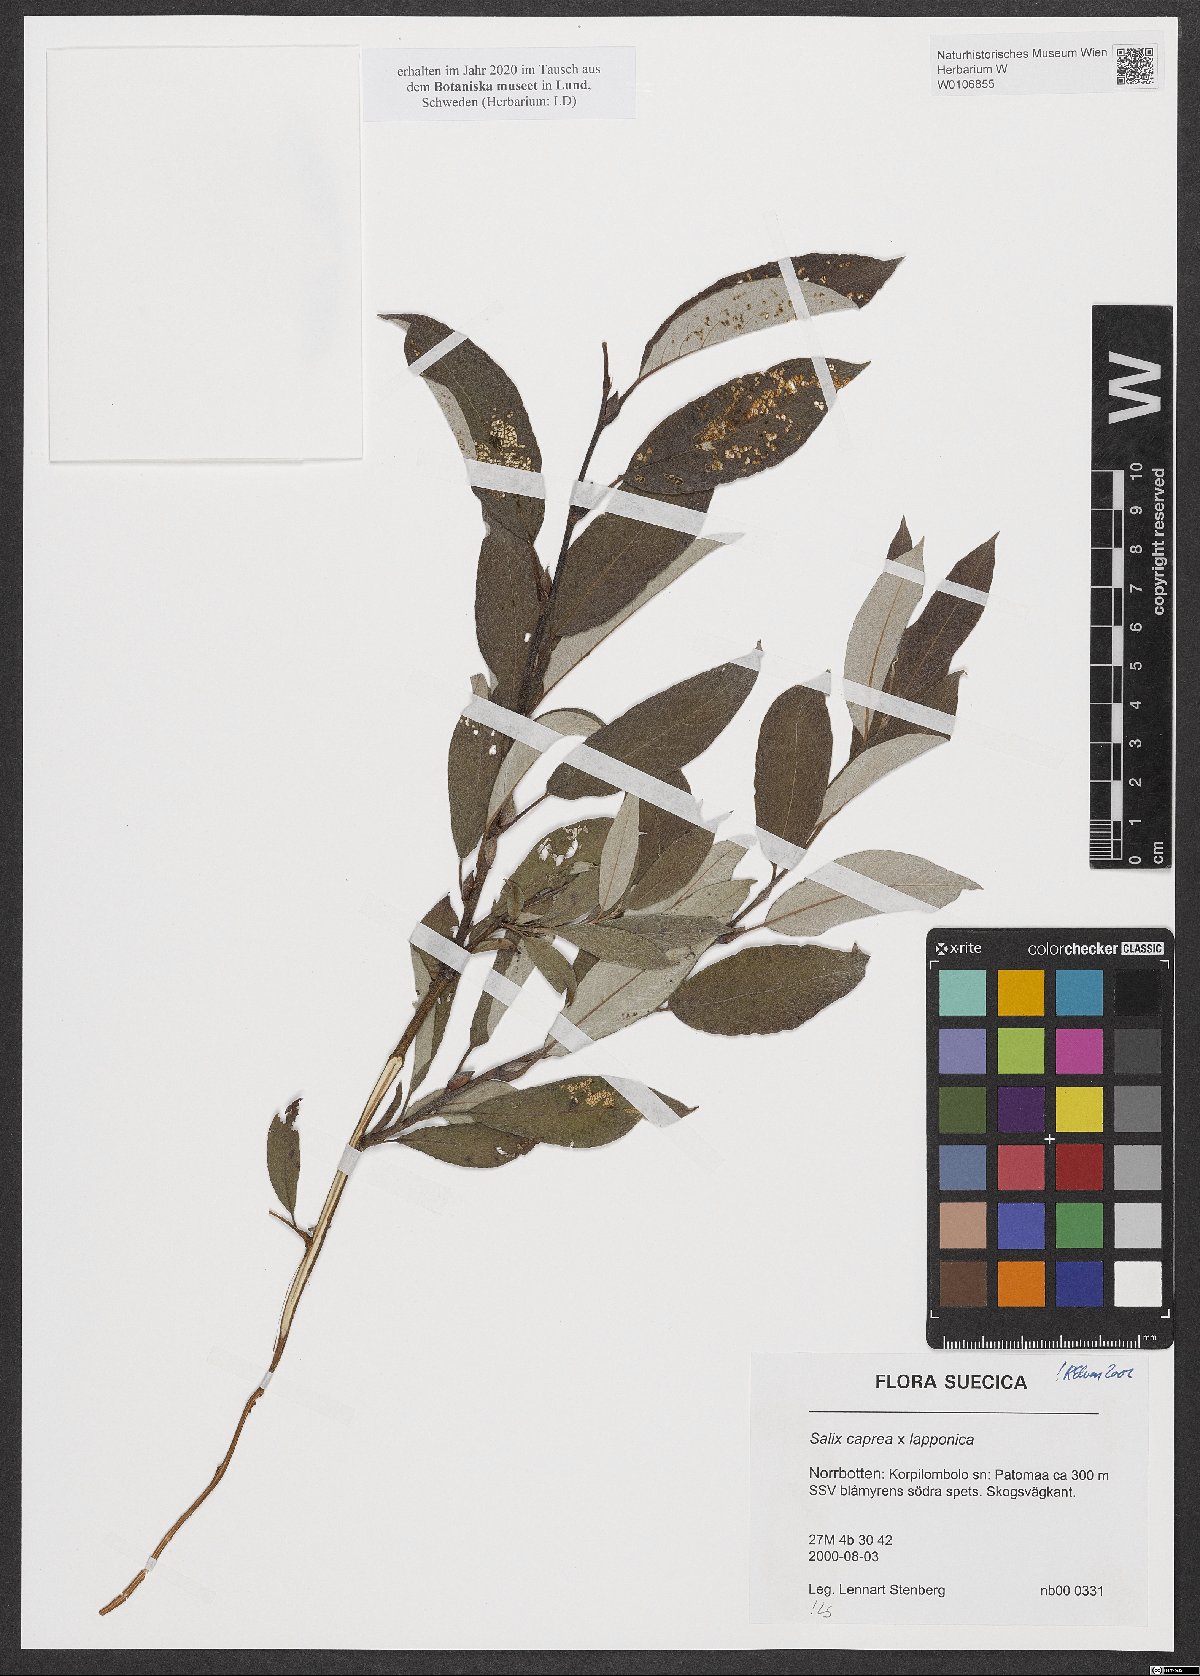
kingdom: Plantae
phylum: Tracheophyta
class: Magnoliopsida
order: Malpighiales
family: Salicaceae
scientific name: Salicaceae
